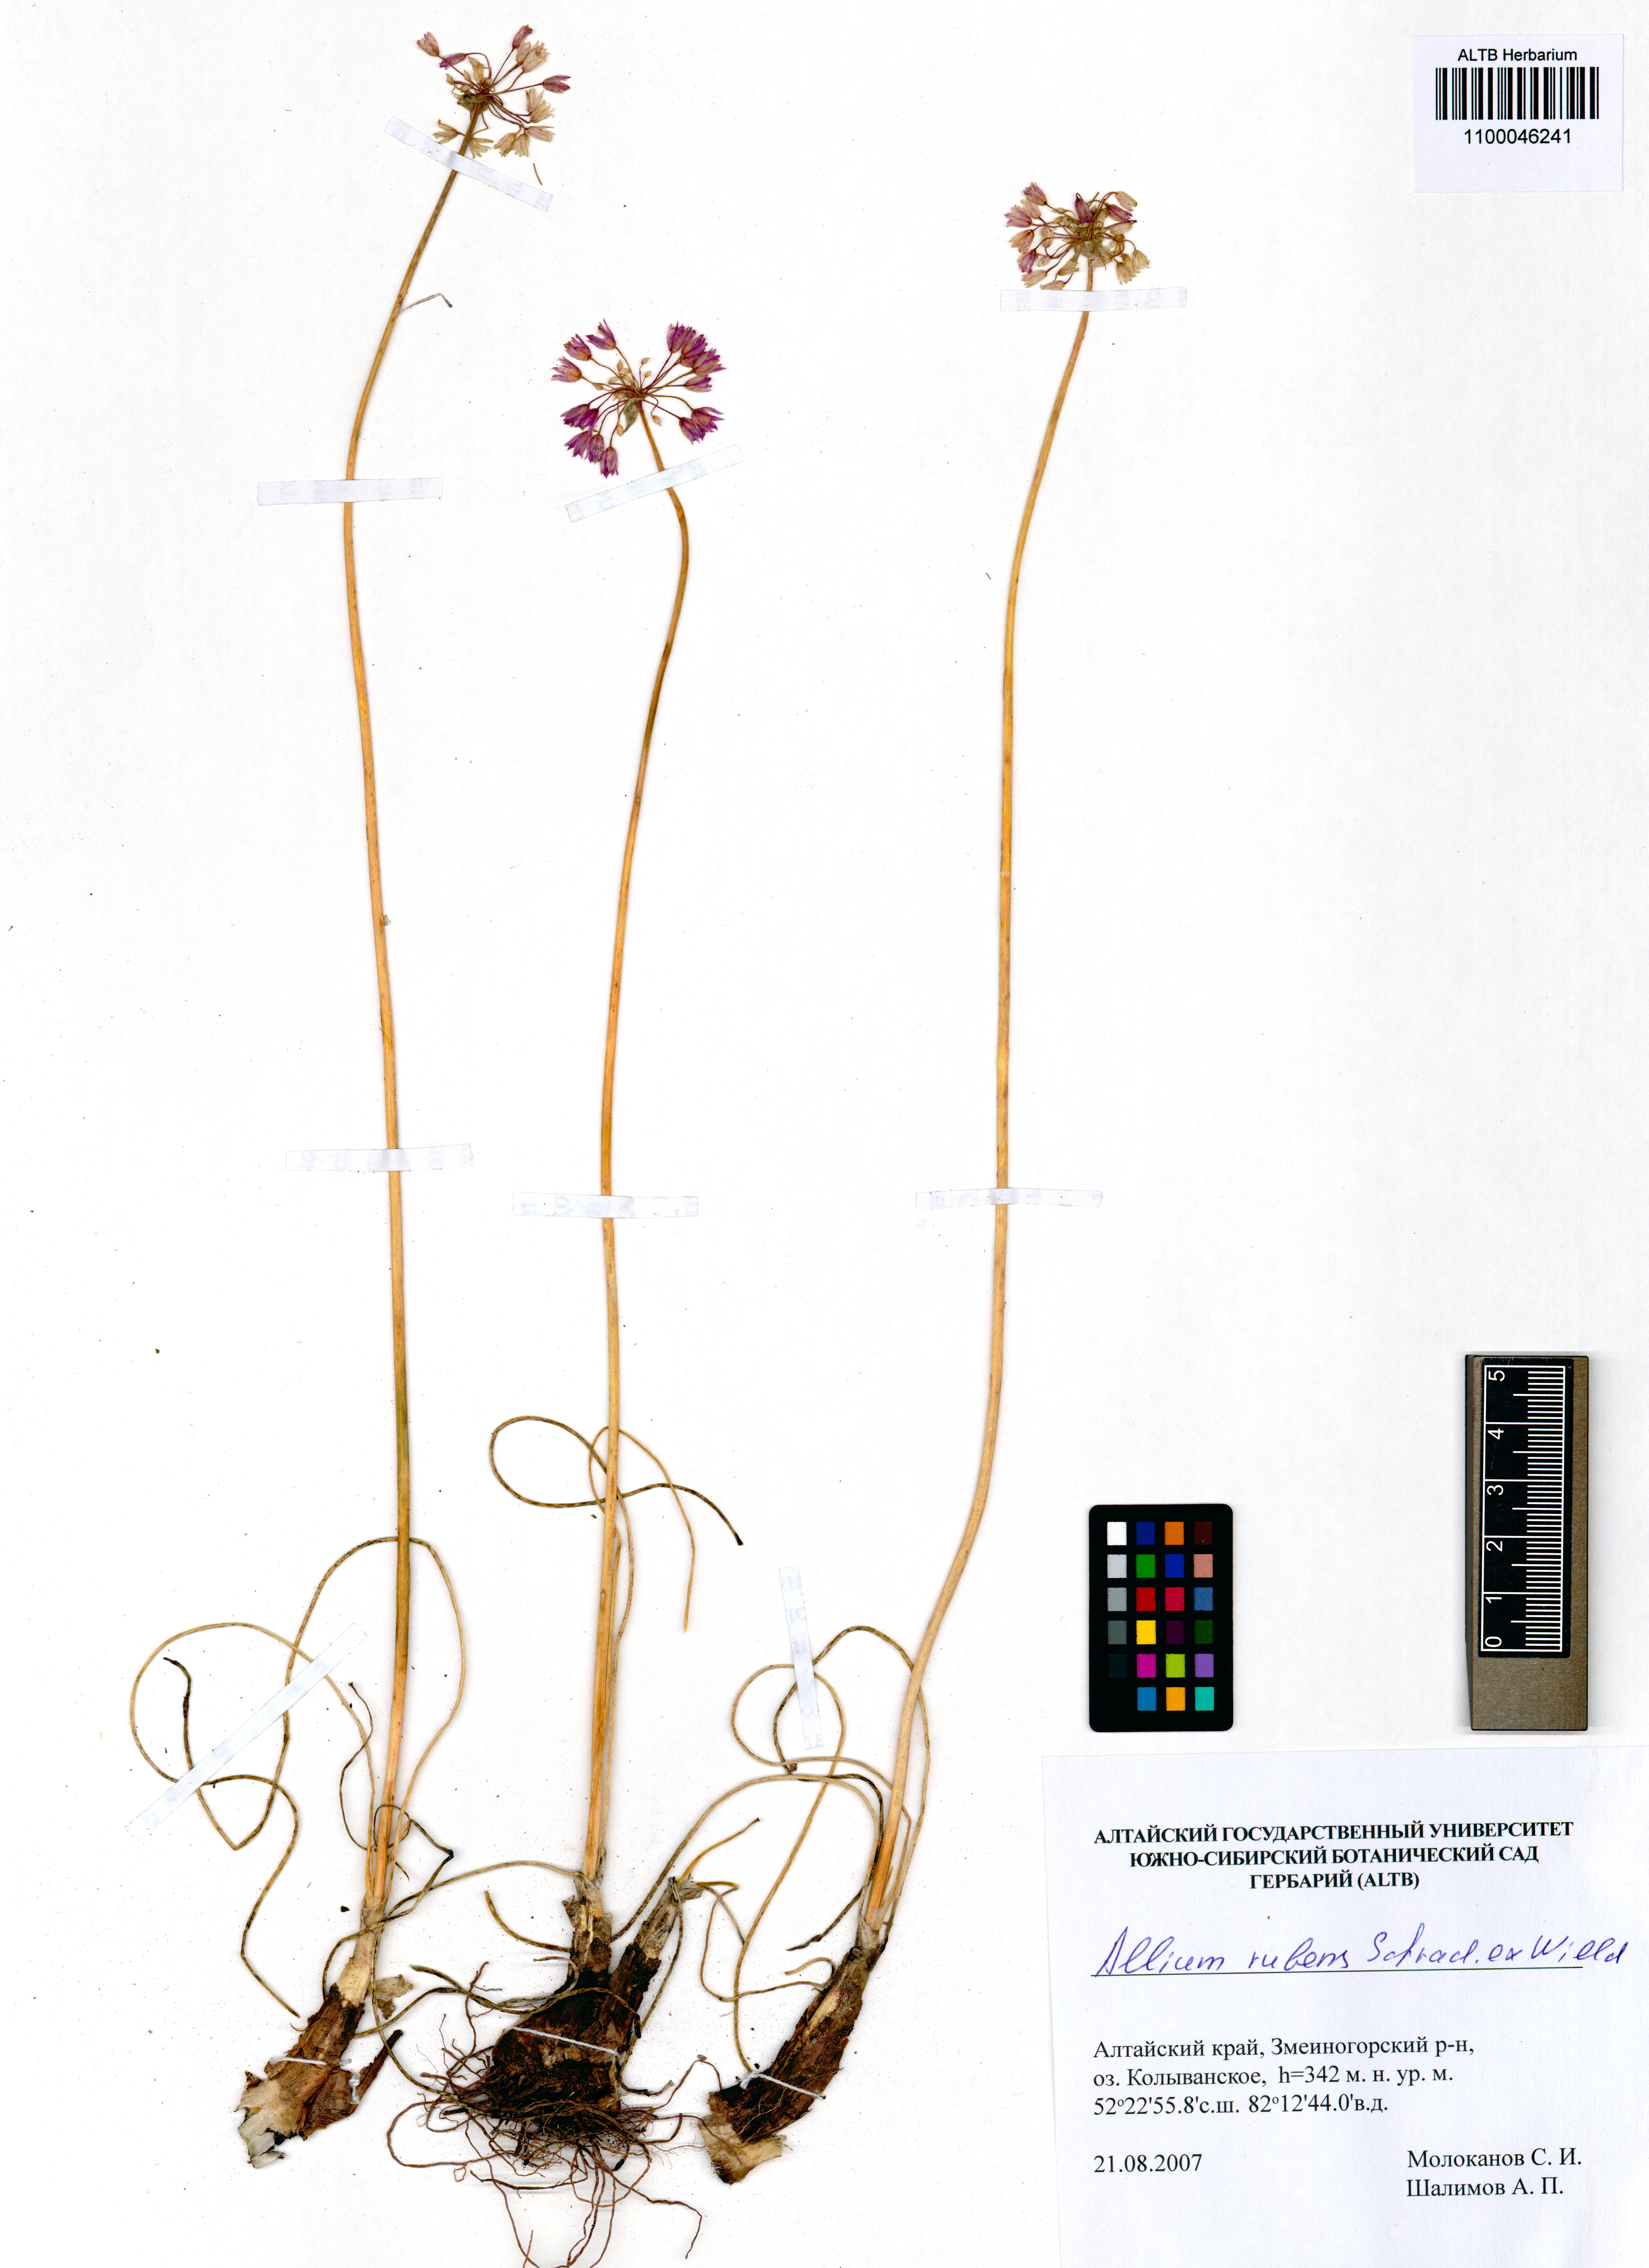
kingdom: Plantae
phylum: Tracheophyta
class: Liliopsida
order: Asparagales
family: Amaryllidaceae
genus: Allium
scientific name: Allium rubens
